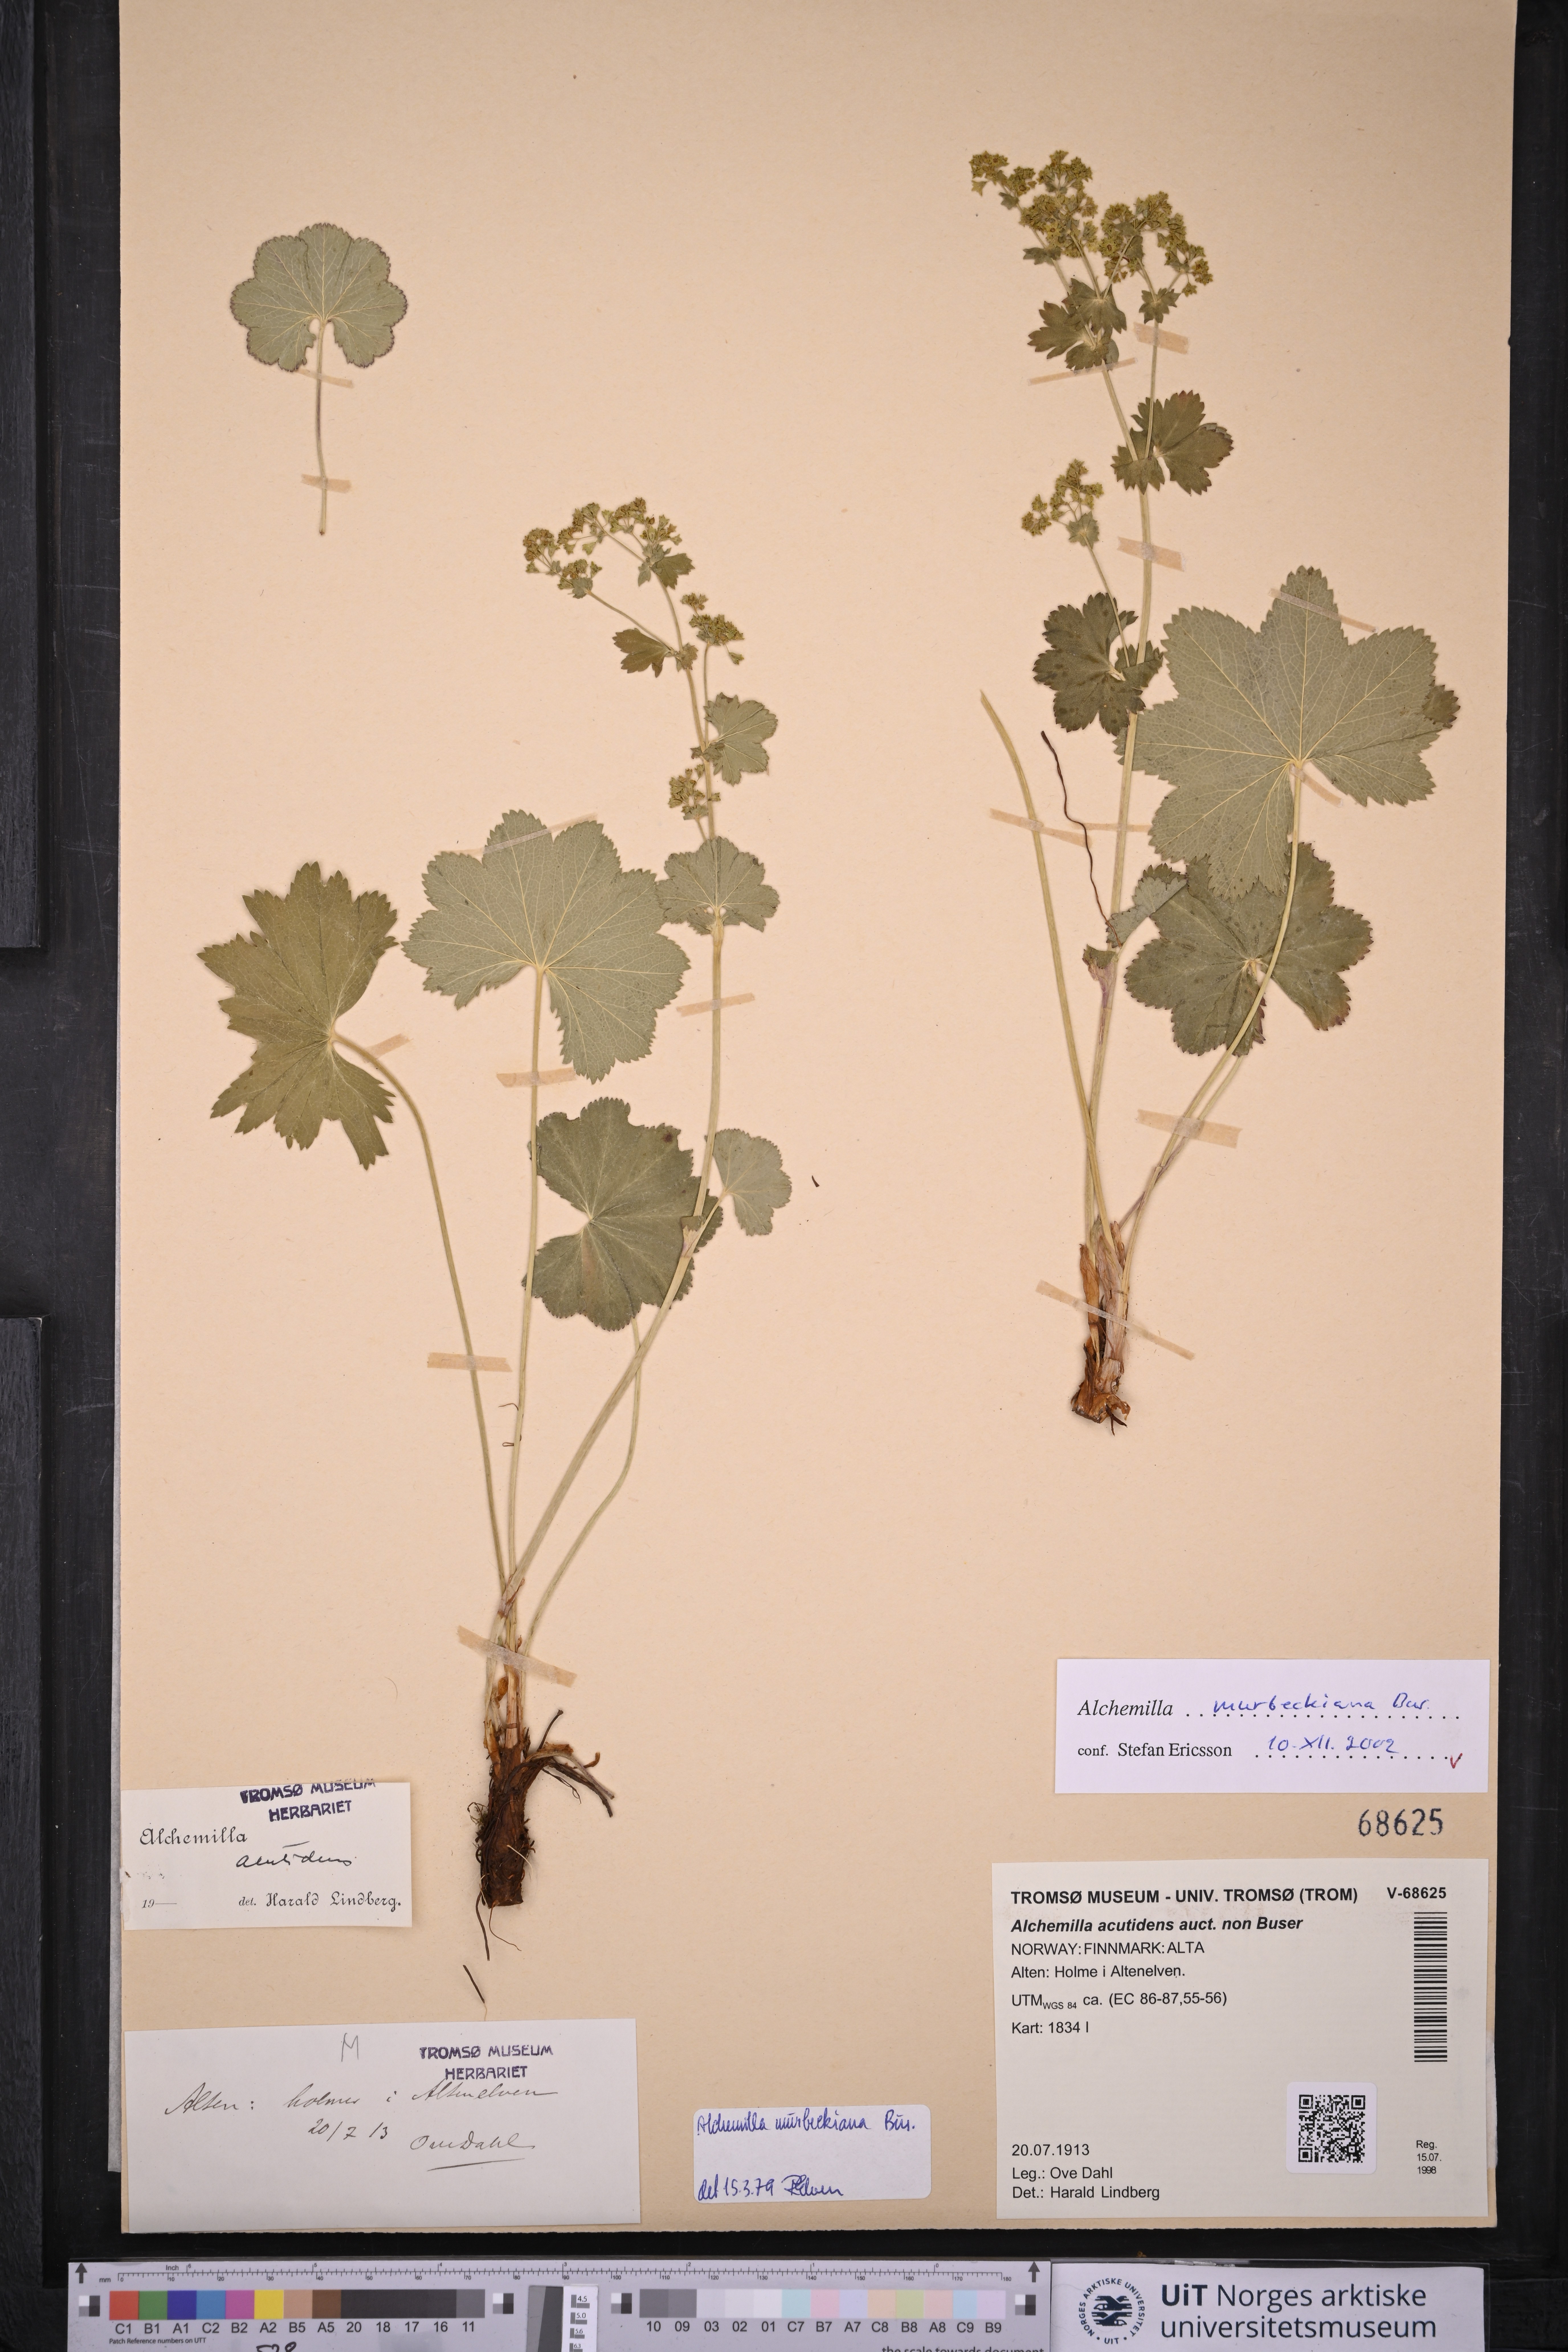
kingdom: Plantae
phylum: Tracheophyta
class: Magnoliopsida
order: Rosales
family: Rosaceae
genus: Alchemilla
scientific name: Alchemilla murbeckiana
